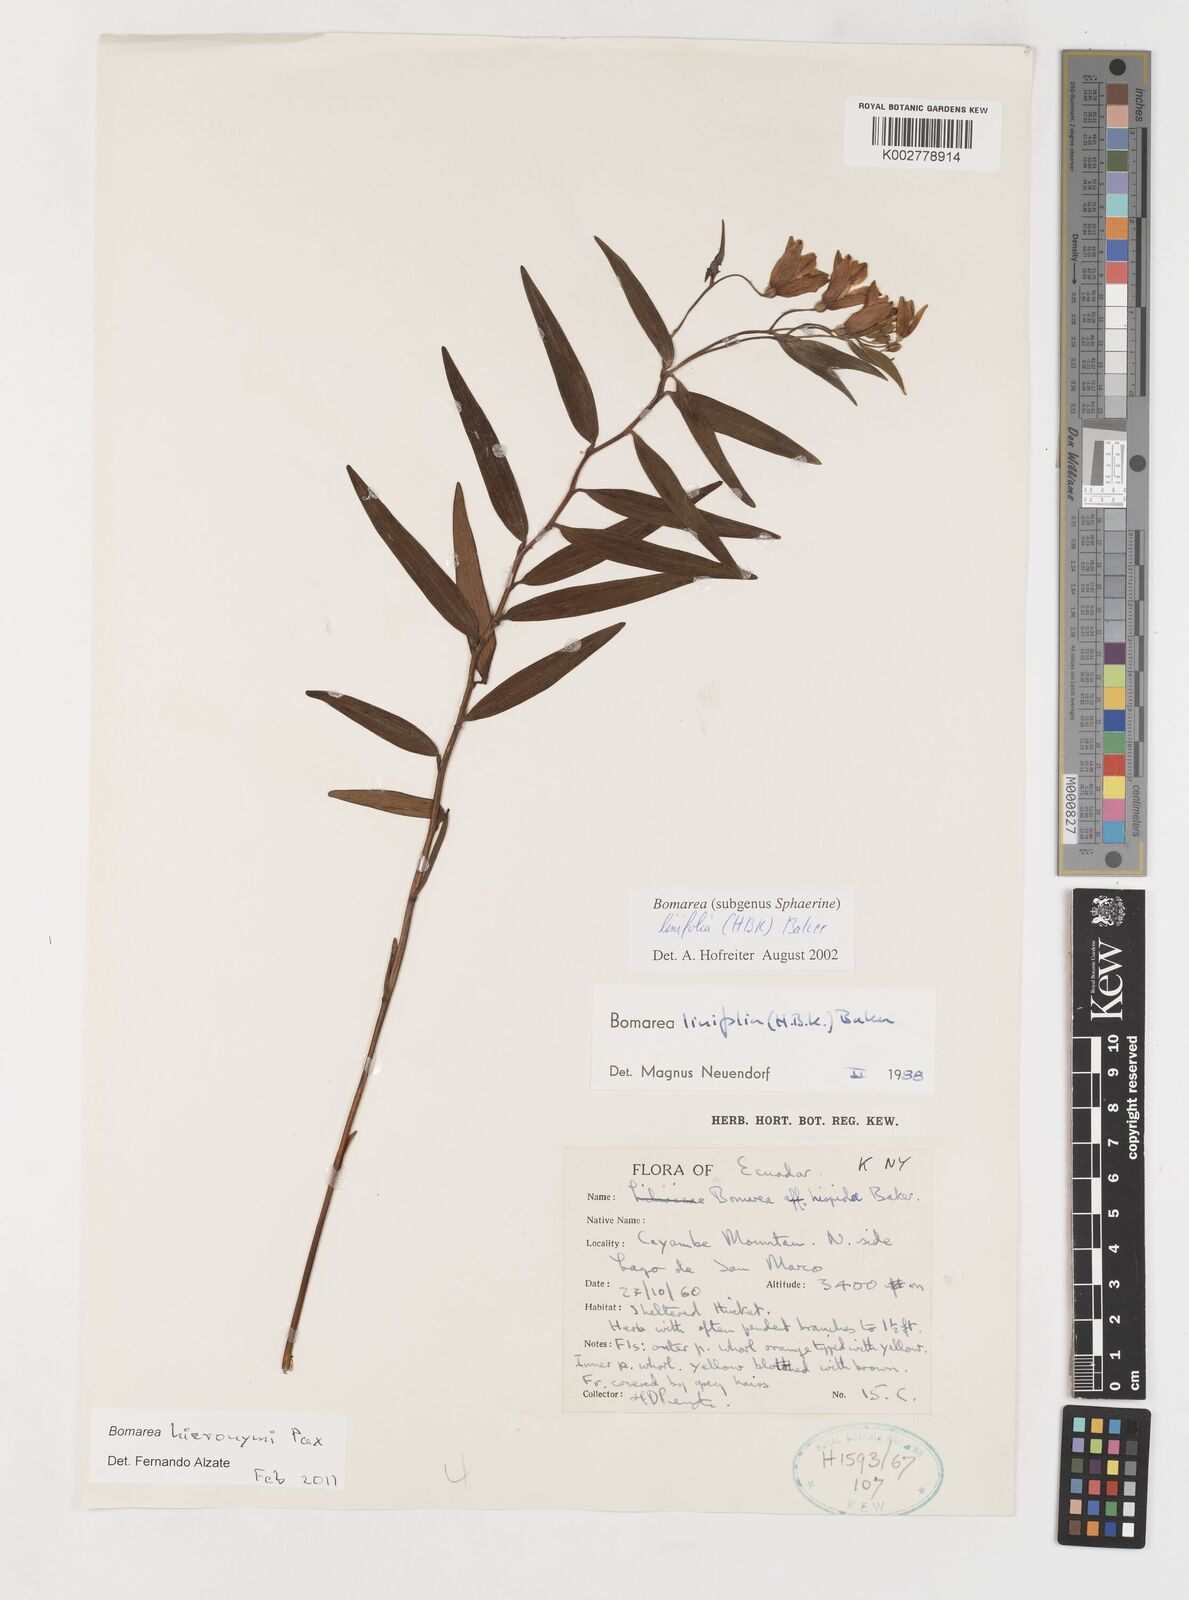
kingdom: Plantae
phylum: Tracheophyta
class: Liliopsida
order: Liliales
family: Alstroemeriaceae
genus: Bomarea
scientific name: Bomarea hieronymi
